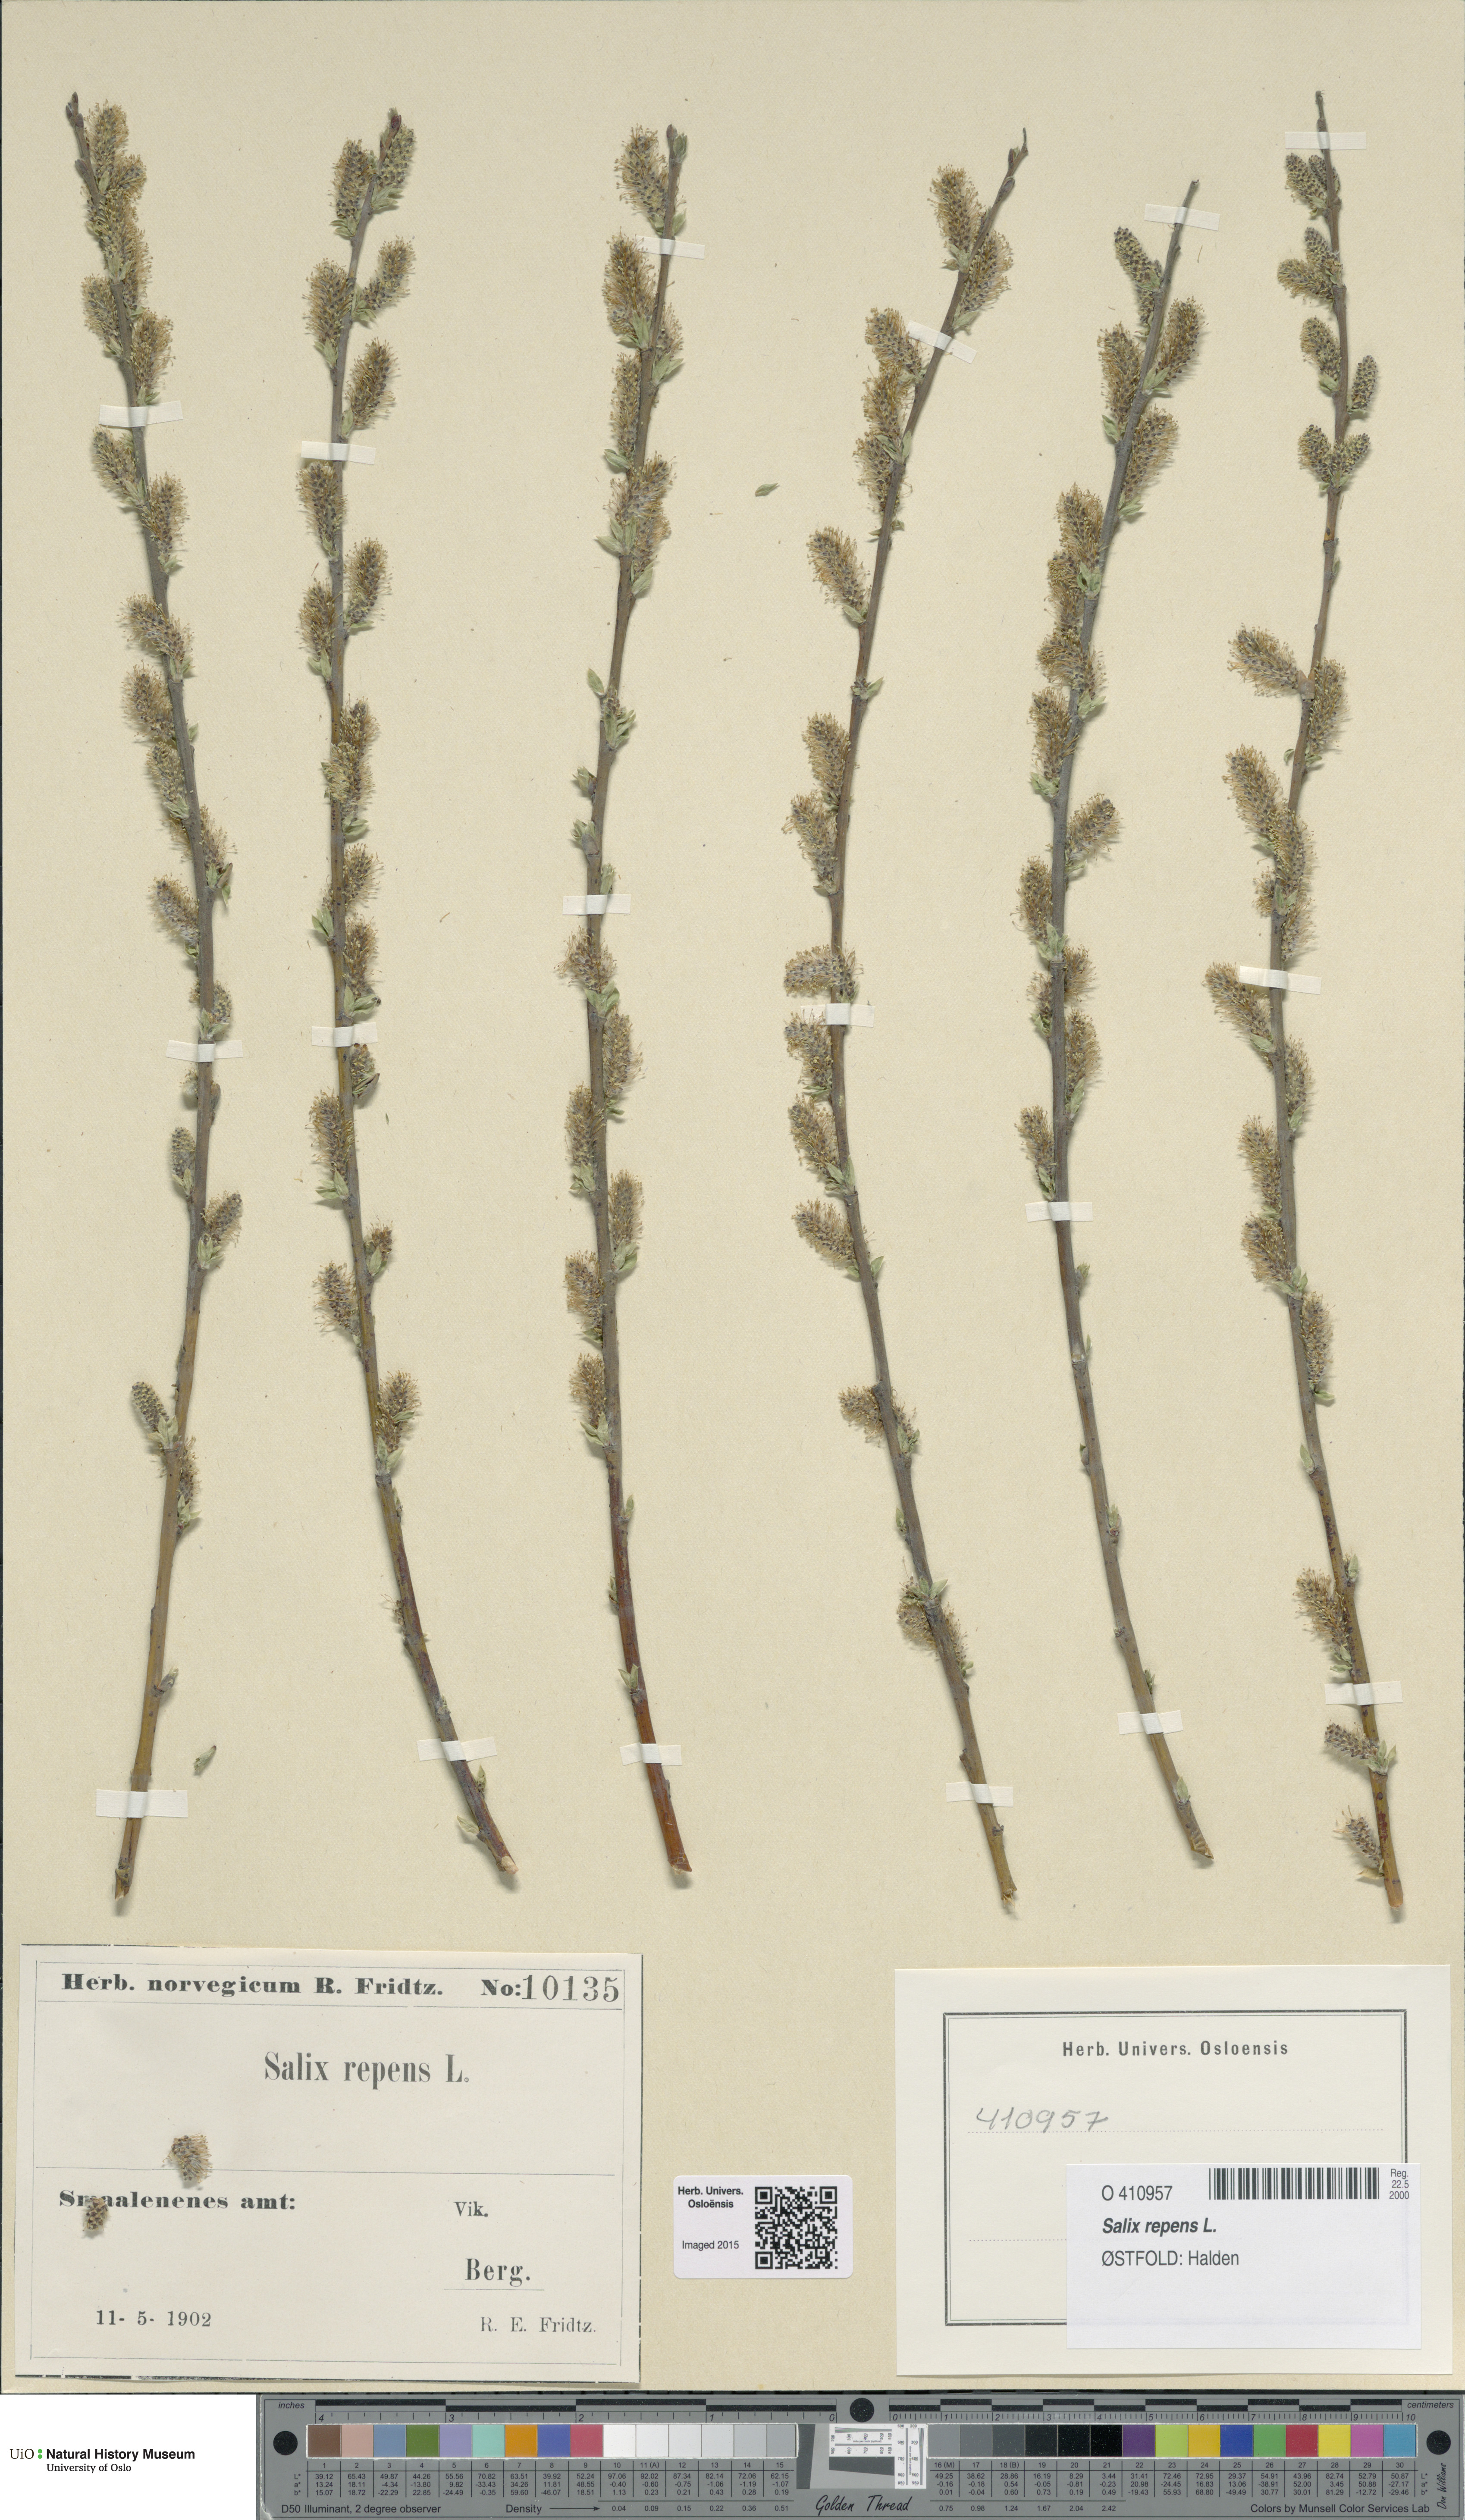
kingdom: Plantae
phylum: Tracheophyta
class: Magnoliopsida
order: Malpighiales
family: Salicaceae
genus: Salix
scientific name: Salix repens
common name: Creeping willow
